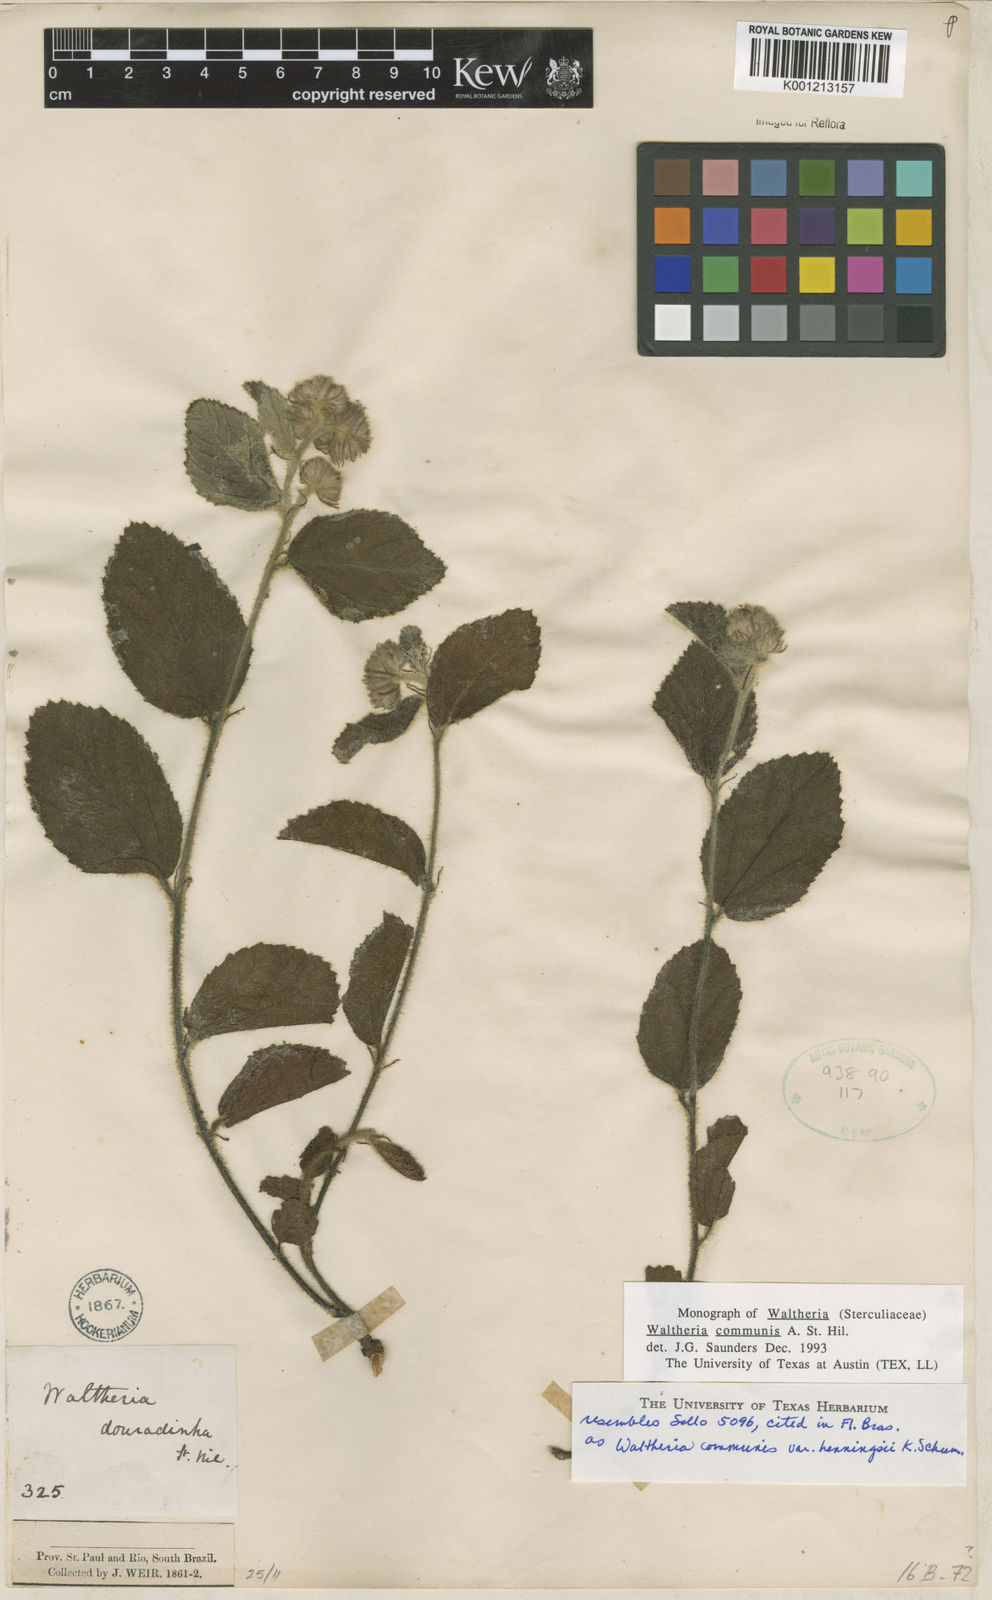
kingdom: Plantae
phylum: Tracheophyta
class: Magnoliopsida
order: Malvales
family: Malvaceae
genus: Waltheria
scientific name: Waltheria communis
